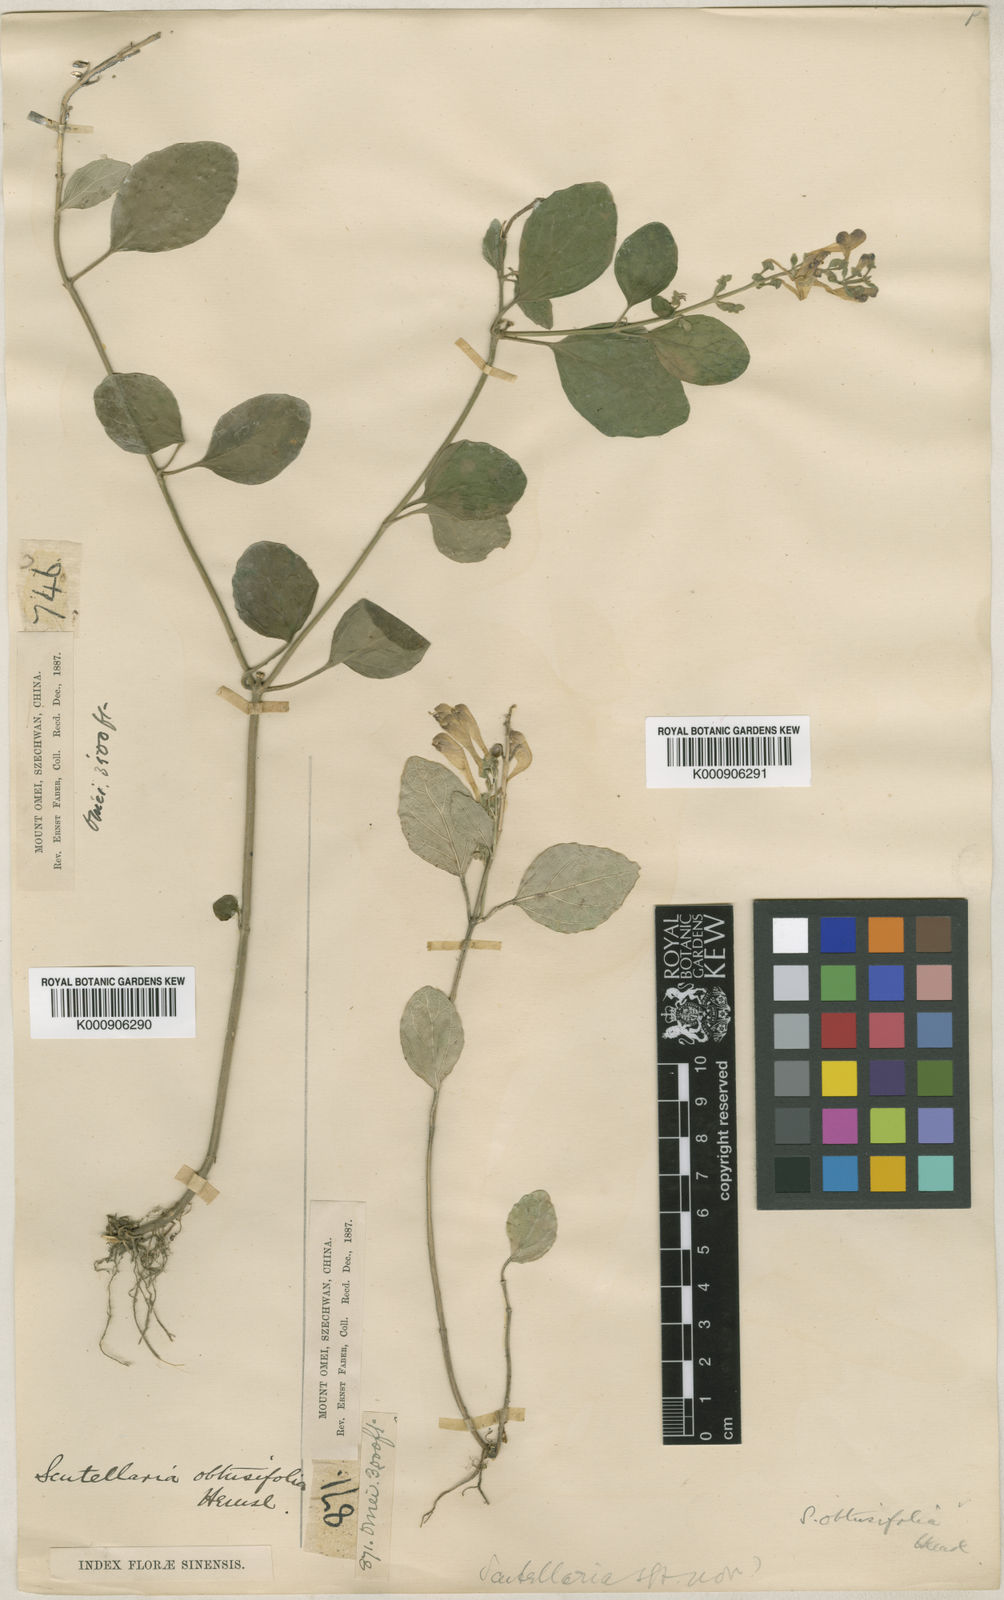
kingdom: Plantae
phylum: Tracheophyta
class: Magnoliopsida
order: Lamiales
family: Lamiaceae
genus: Scutellaria
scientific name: Scutellaria obtusifolia
